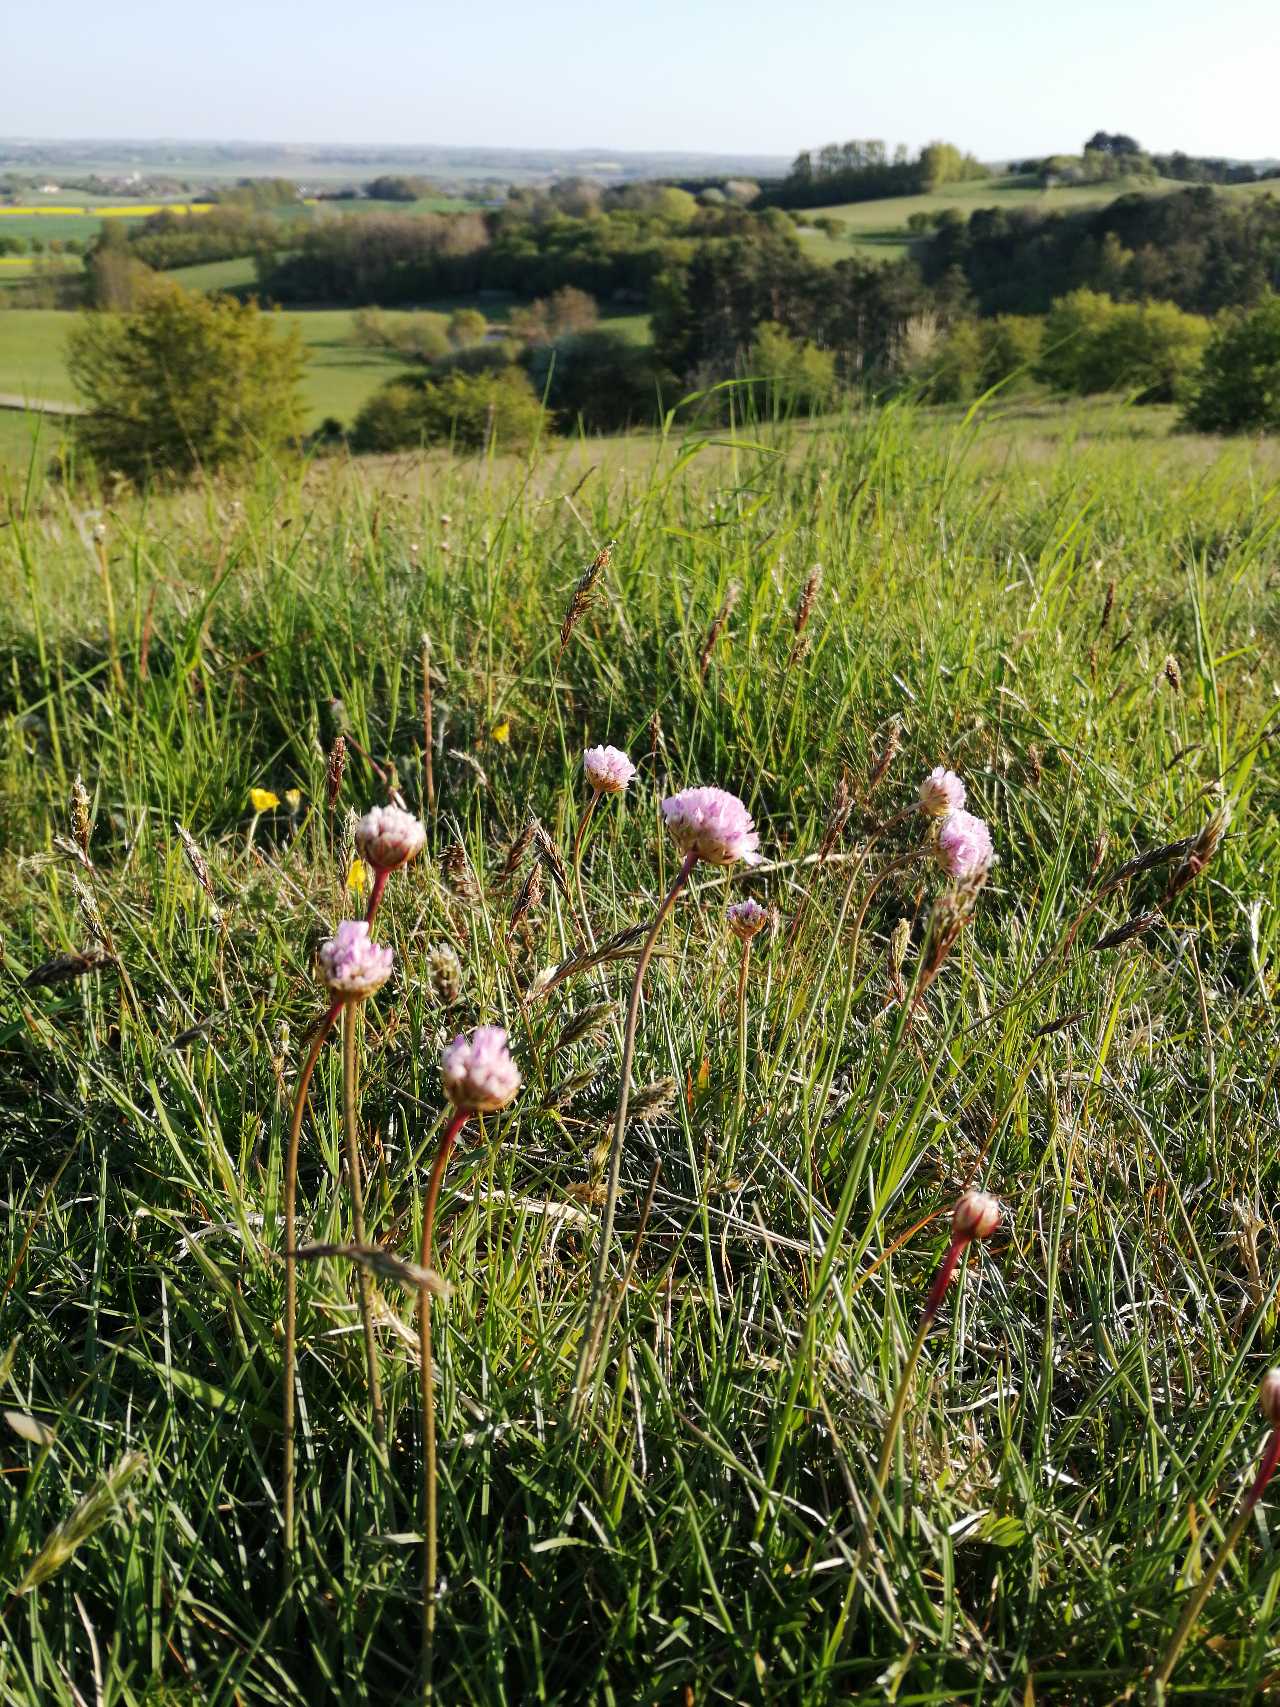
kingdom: Plantae
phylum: Tracheophyta
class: Magnoliopsida
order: Caryophyllales
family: Plumbaginaceae
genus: Armeria
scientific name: Armeria maritima
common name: Engelskgræs
